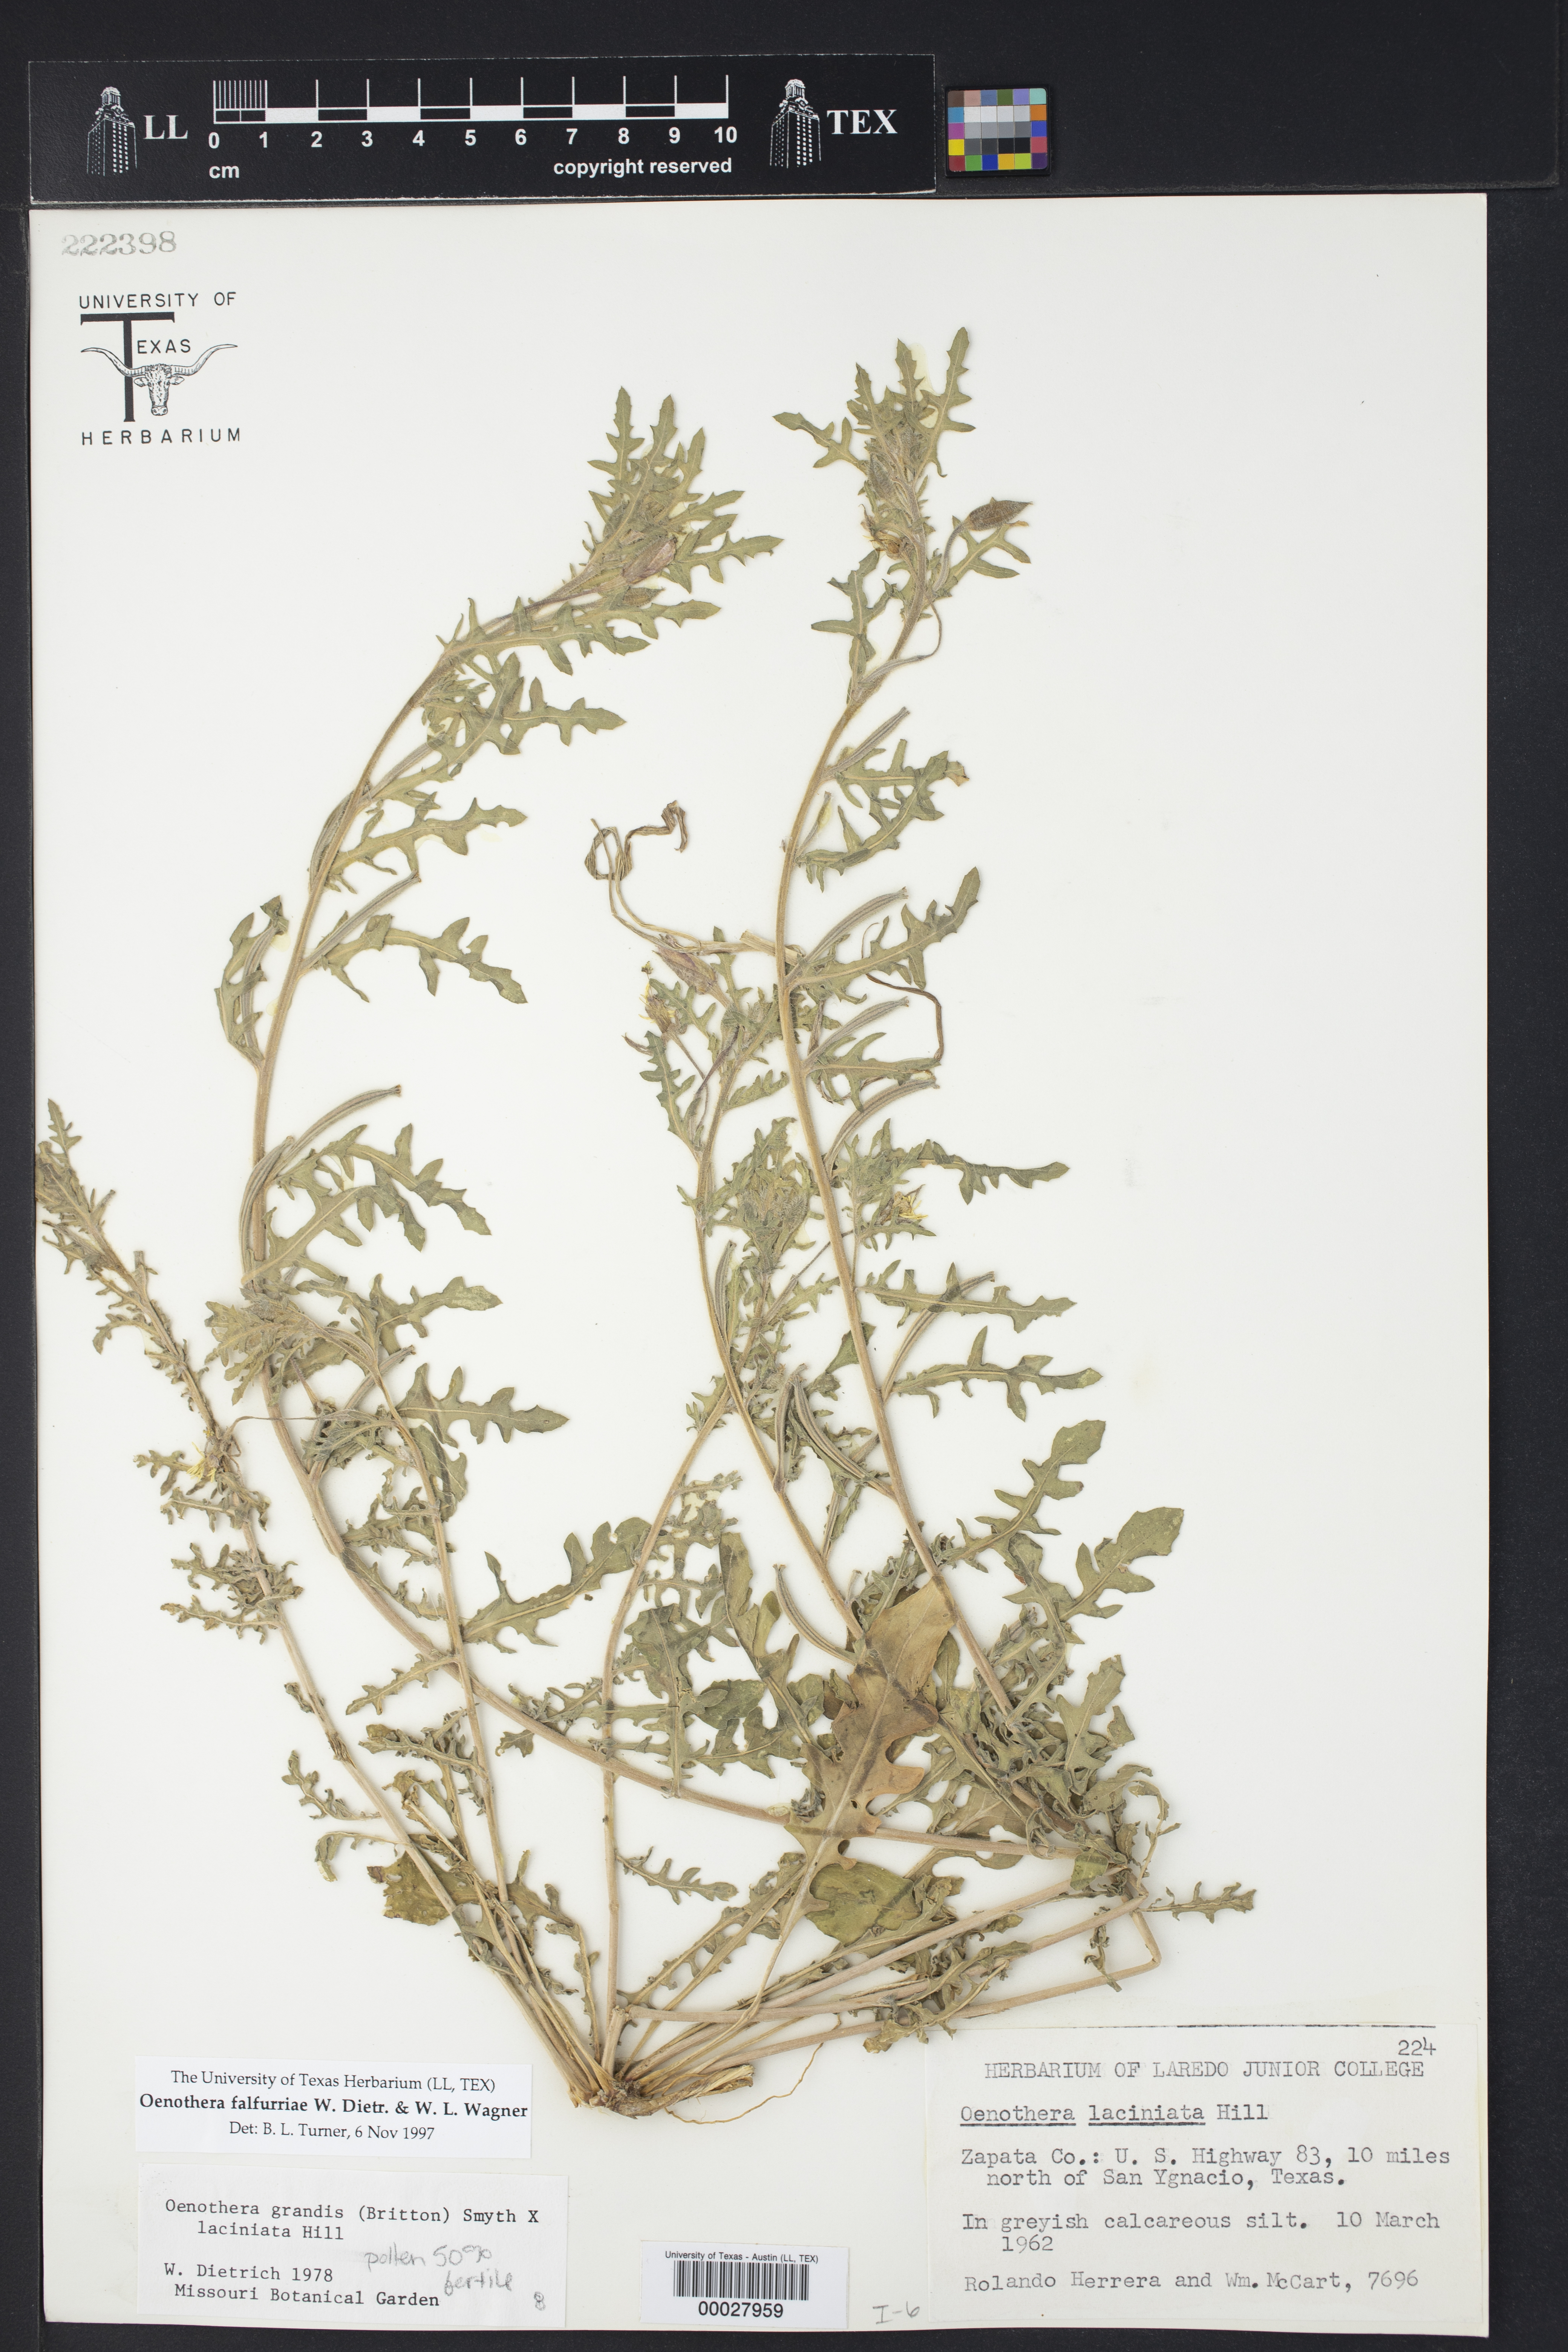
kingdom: Plantae
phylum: Tracheophyta
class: Magnoliopsida
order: Myrtales
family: Onagraceae
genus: Oenothera
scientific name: Oenothera falfurriae
